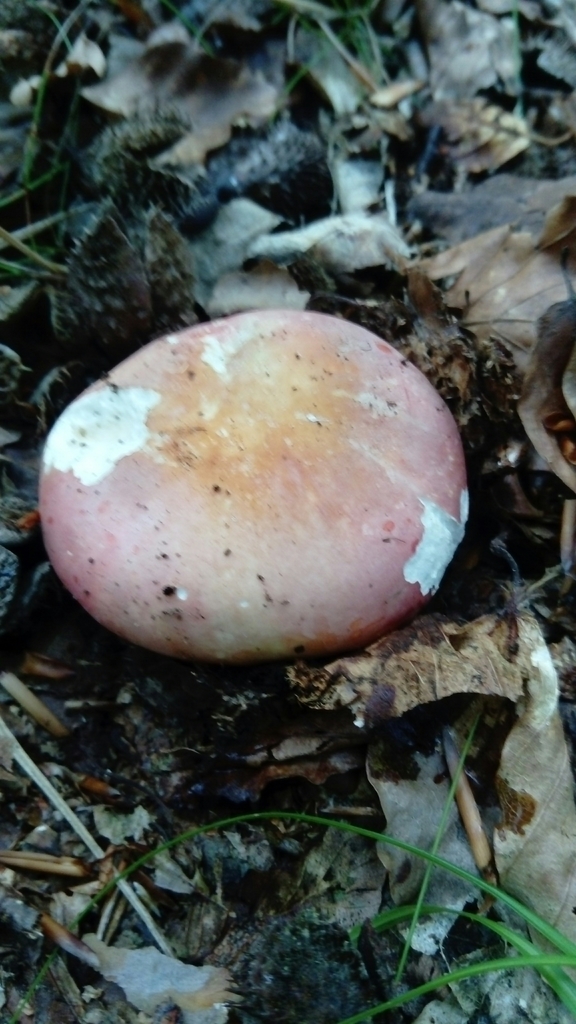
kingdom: Fungi
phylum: Basidiomycota
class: Agaricomycetes
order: Russulales
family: Russulaceae
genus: Russula
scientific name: Russula
